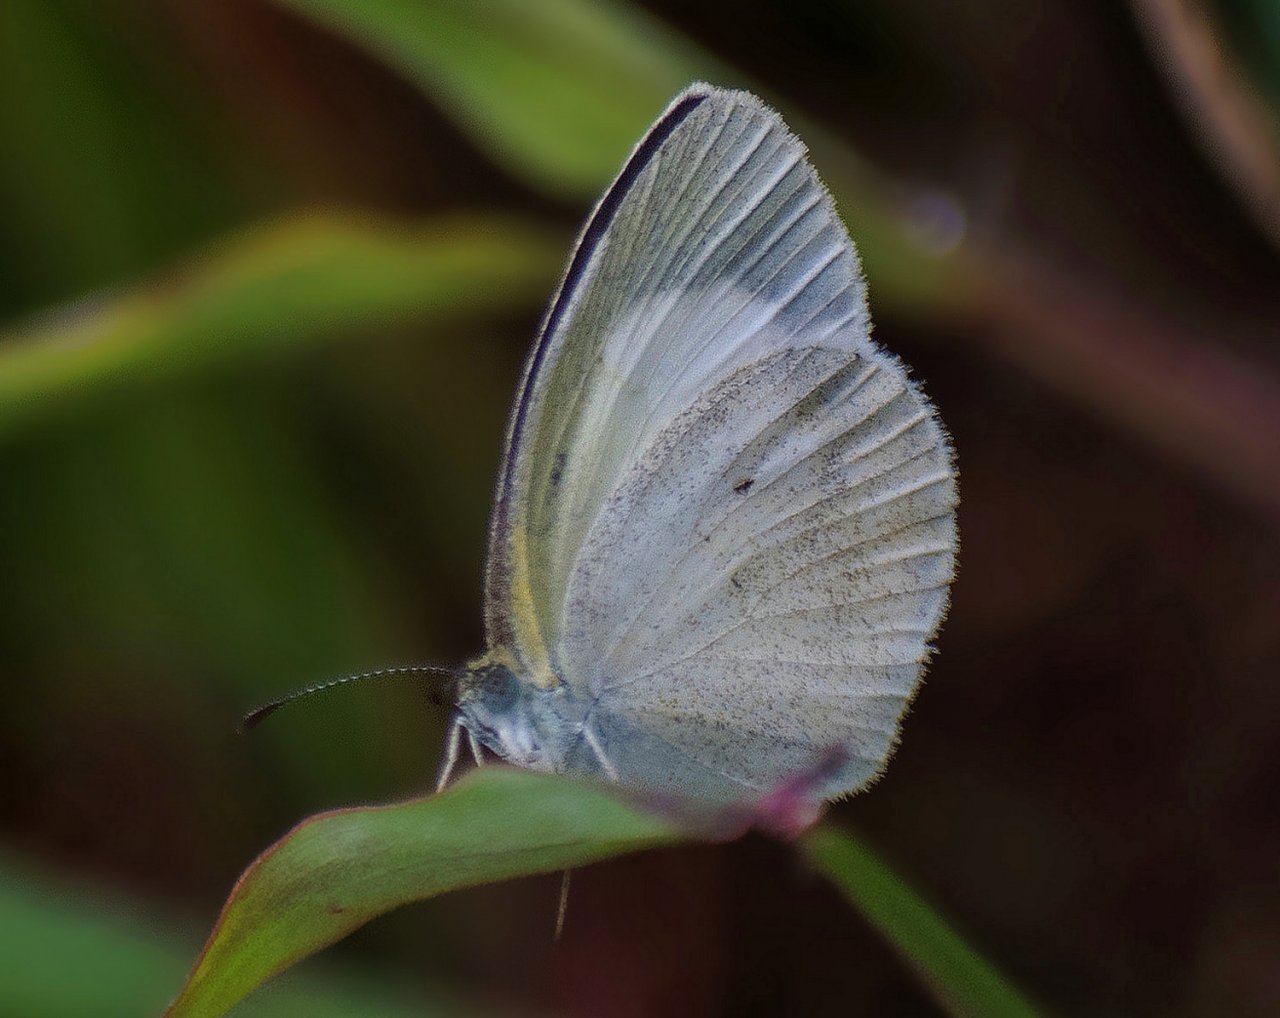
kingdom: Animalia
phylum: Arthropoda
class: Insecta
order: Lepidoptera
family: Pieridae
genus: Eurema
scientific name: Eurema elathea
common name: Banded Yellow
